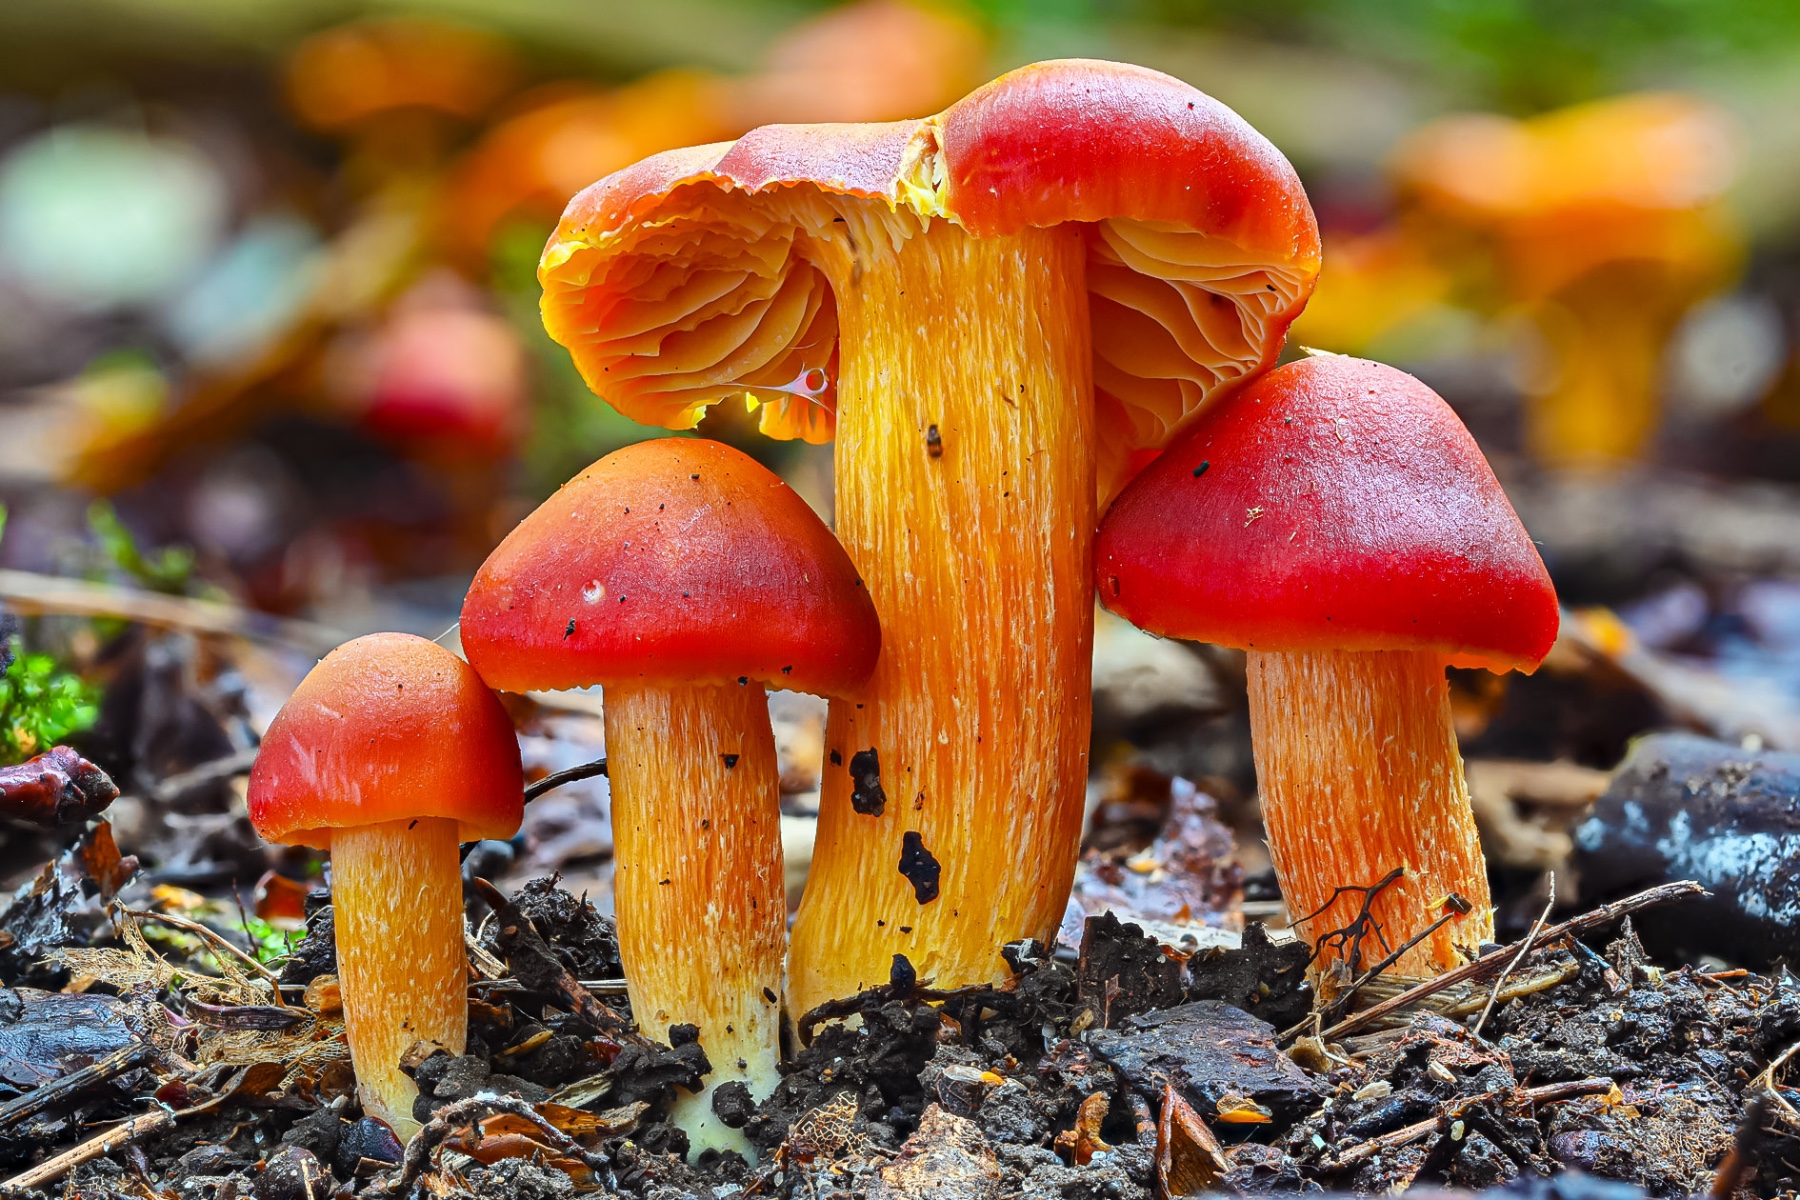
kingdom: Fungi
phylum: Basidiomycota
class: Agaricomycetes
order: Agaricales
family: Hygrophoraceae
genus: Hygrocybe
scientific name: Hygrocybe punicea
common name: skarlagen-vokshat
